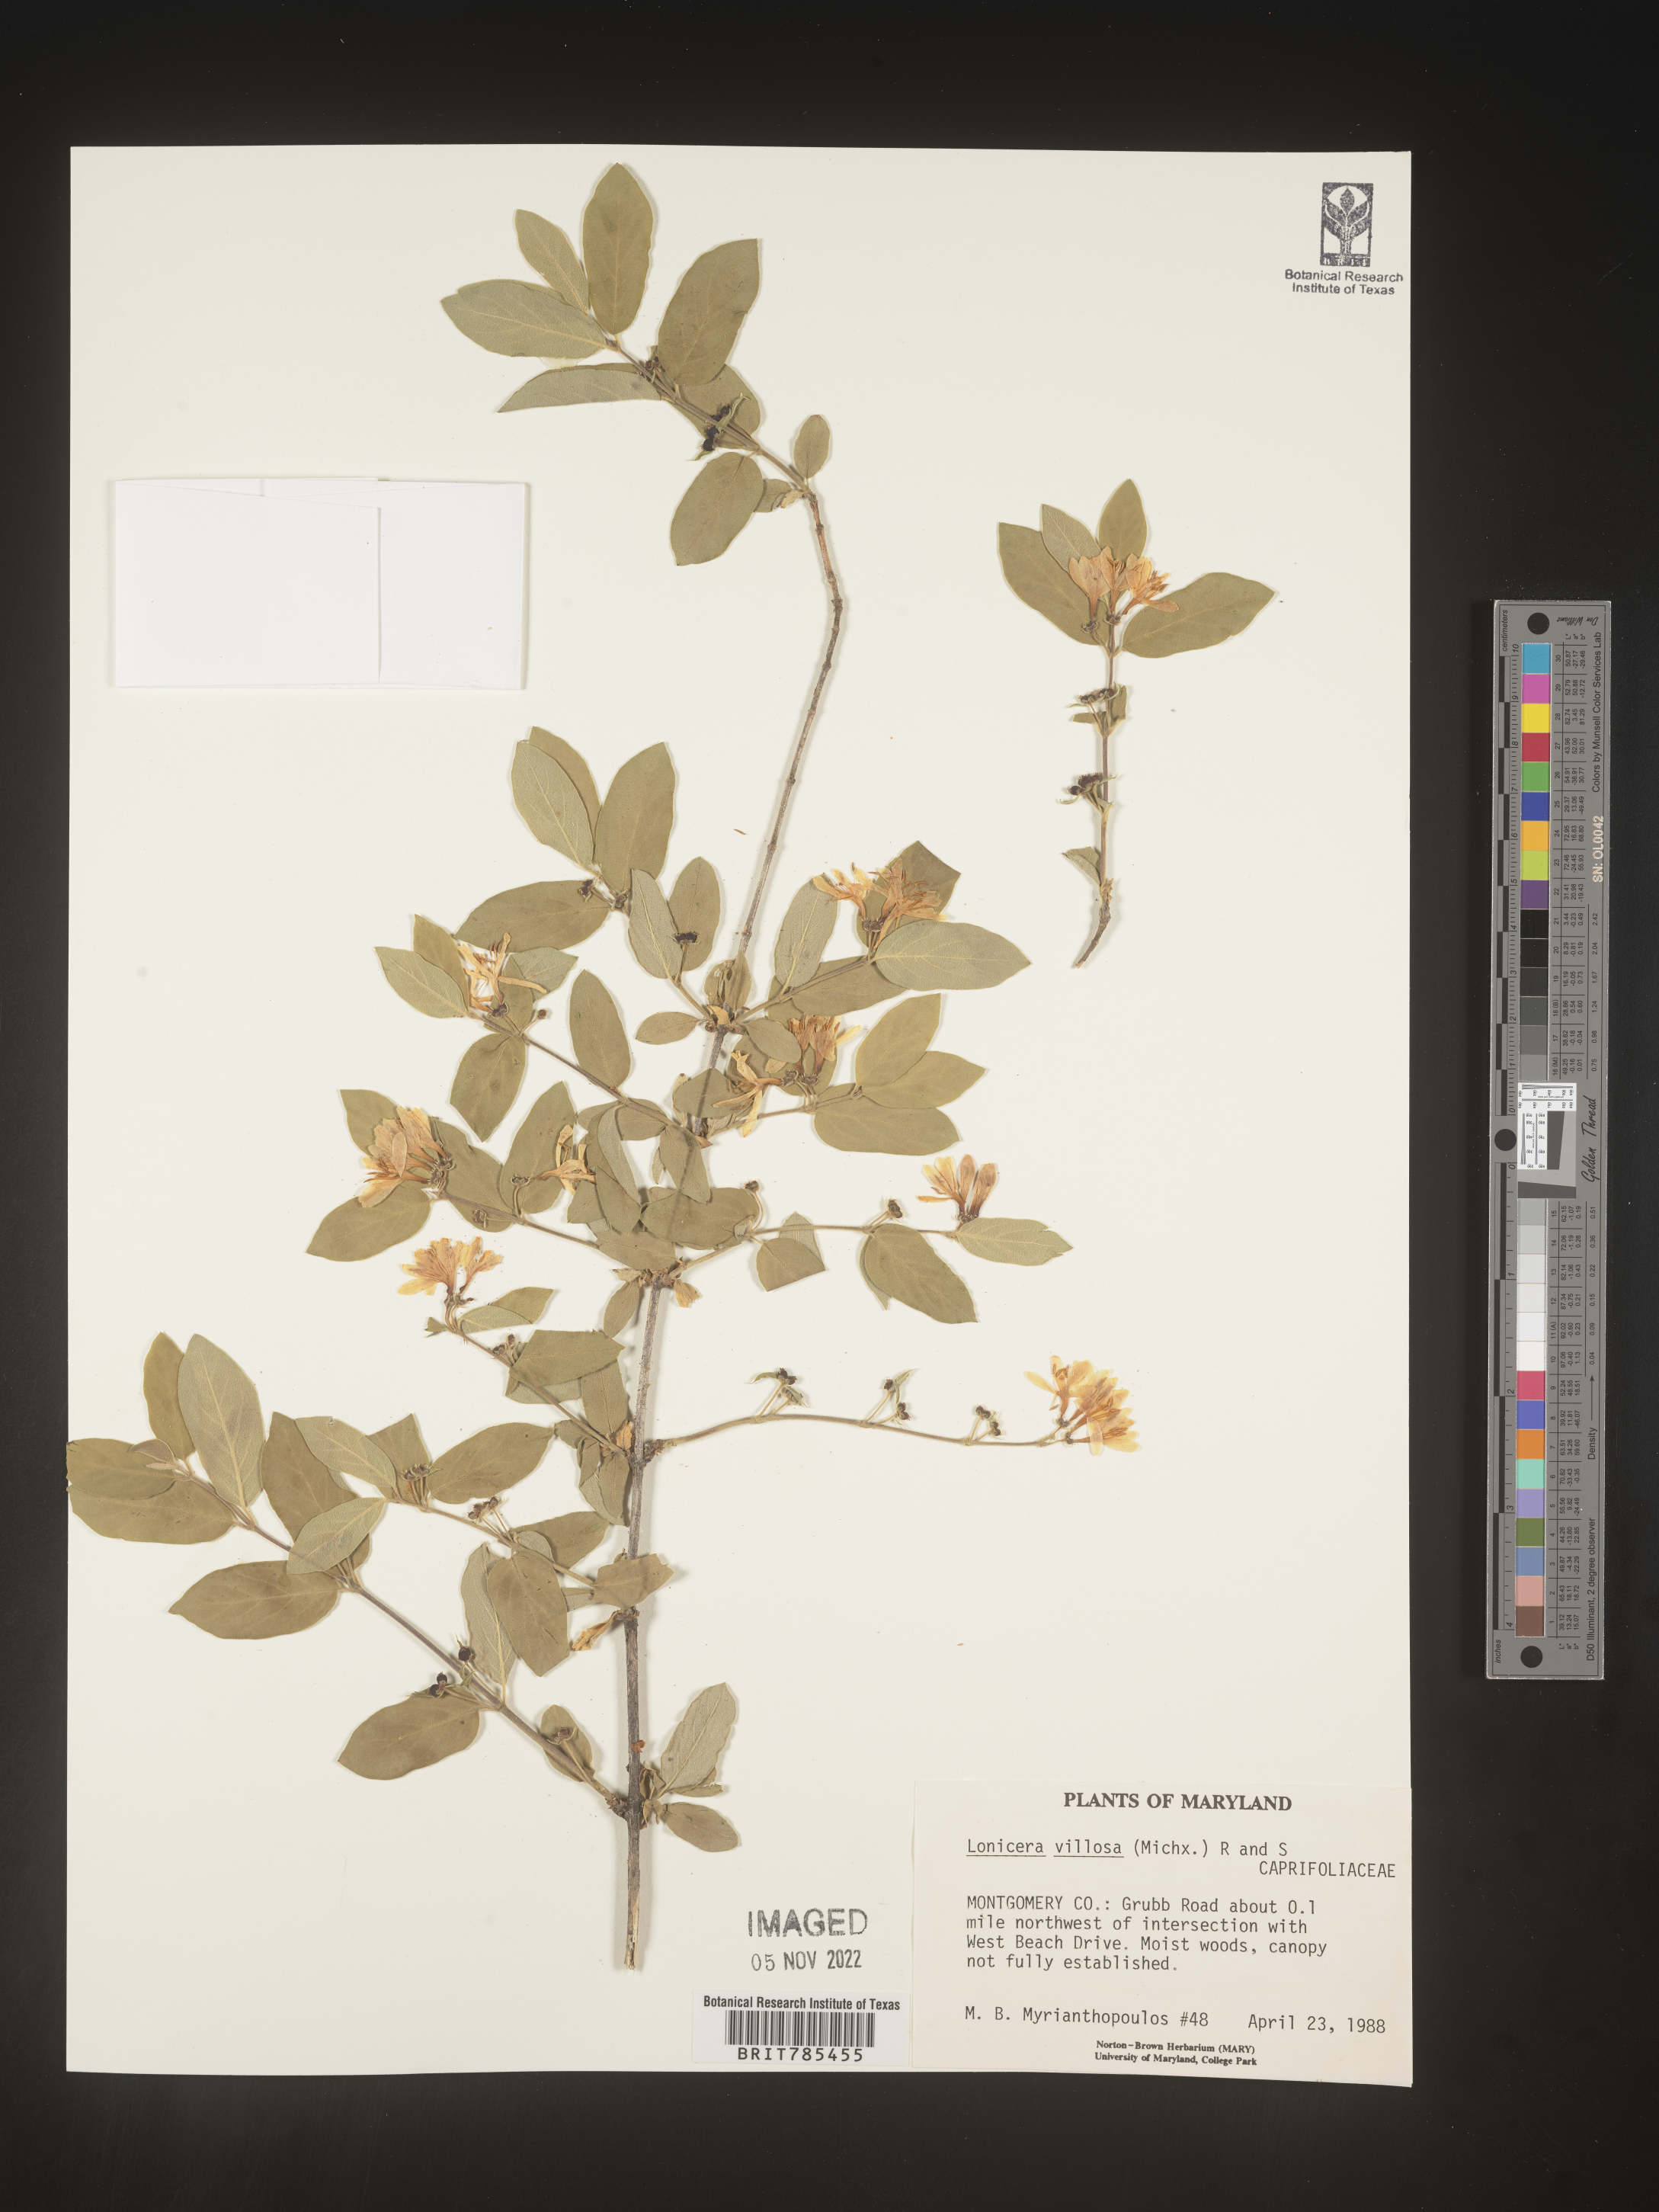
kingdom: Plantae
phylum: Tracheophyta
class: Magnoliopsida
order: Dipsacales
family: Caprifoliaceae
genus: Lonicera
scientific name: Lonicera
